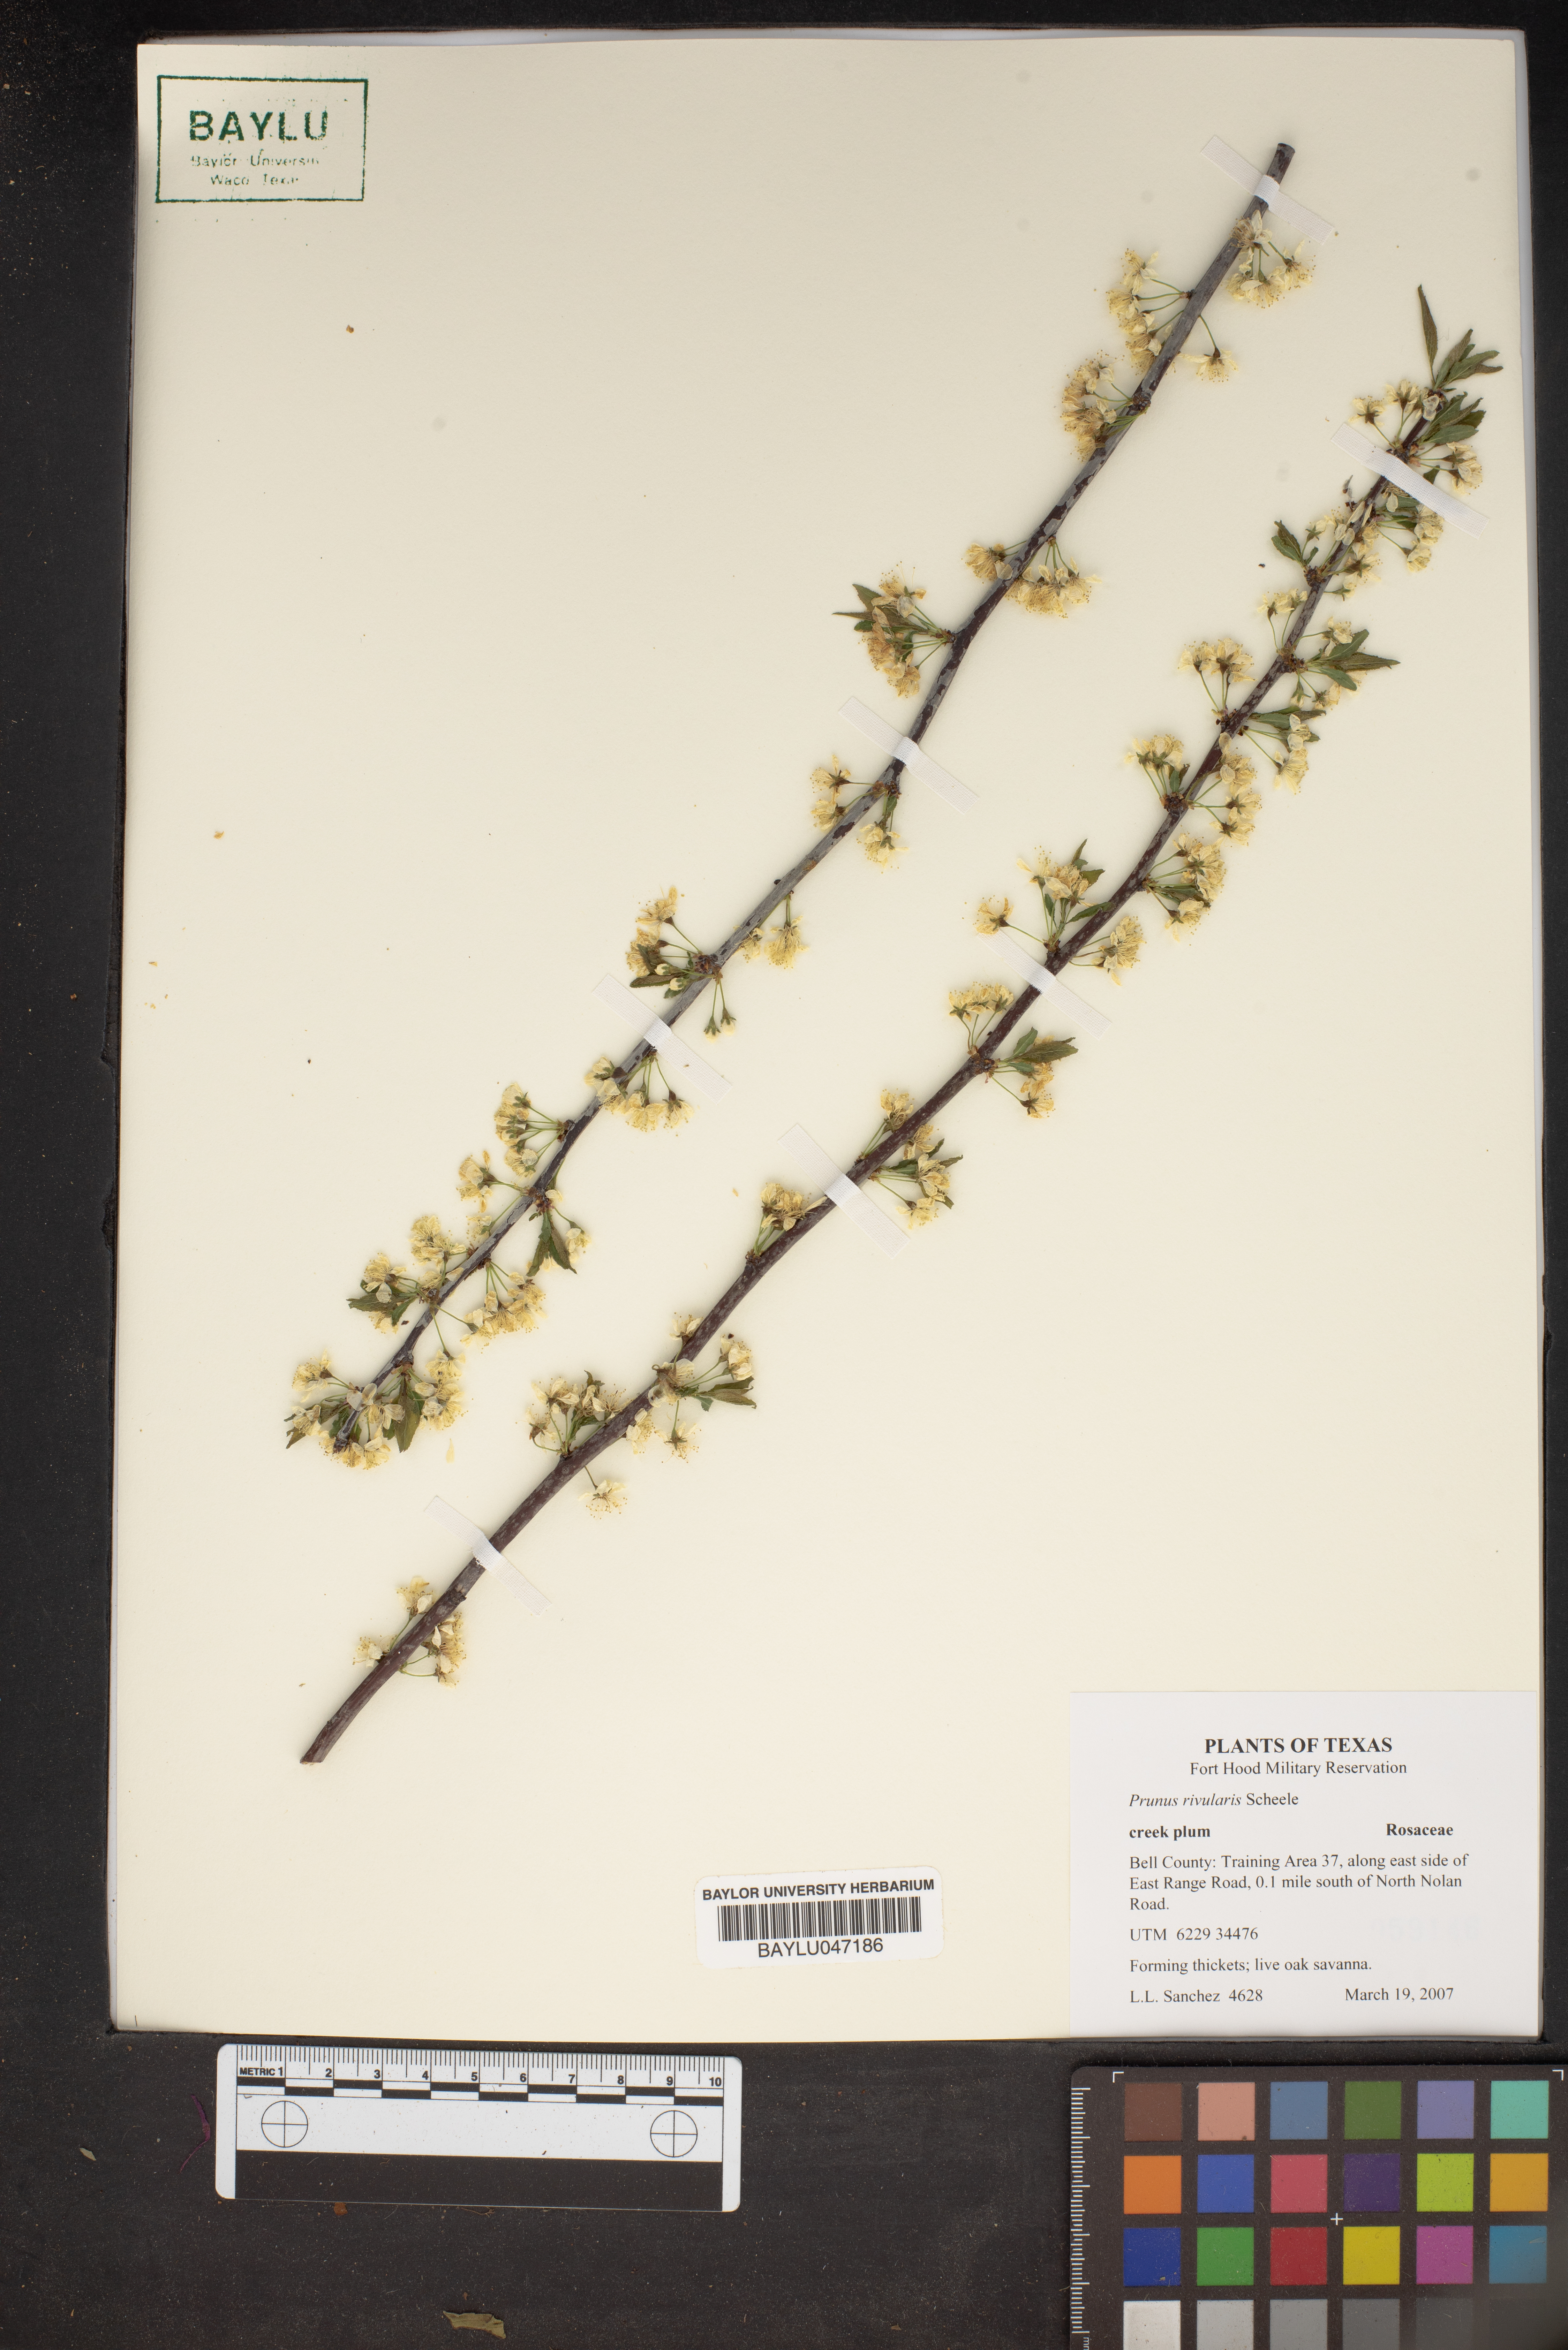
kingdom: Plantae
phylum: Tracheophyta
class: Magnoliopsida
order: Rosales
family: Rosaceae
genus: Prunus
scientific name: Prunus rivularis
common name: Creek plum
